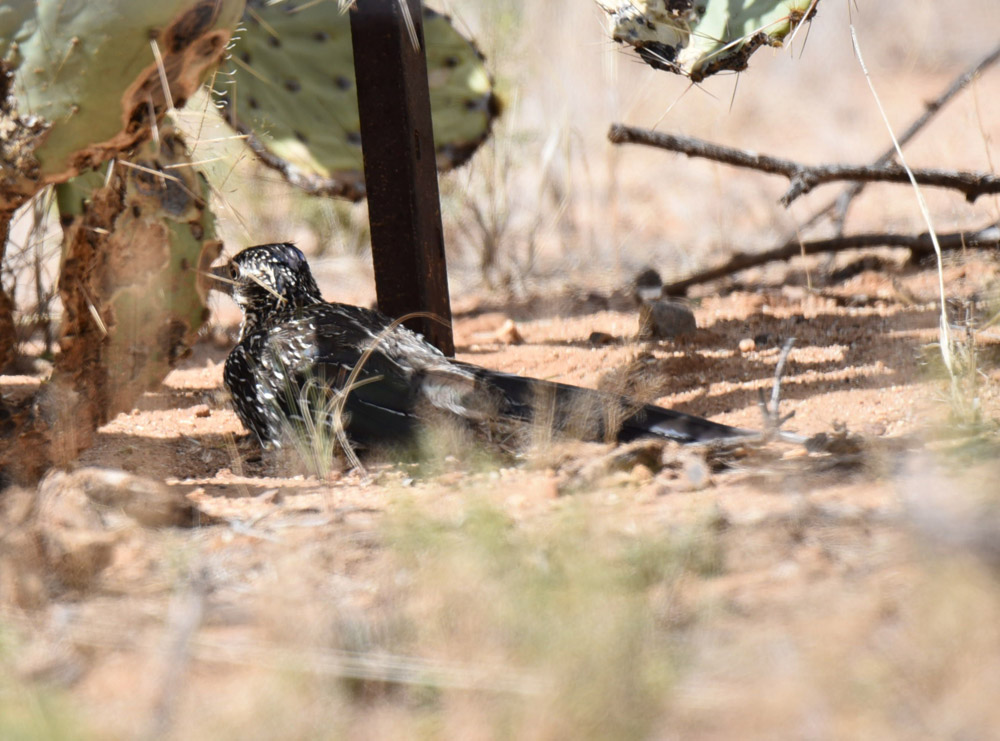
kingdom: Animalia
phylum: Chordata
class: Aves
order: Cuculiformes
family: Cuculidae
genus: Geococcyx
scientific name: Geococcyx californianus
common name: Greater roadrunner
